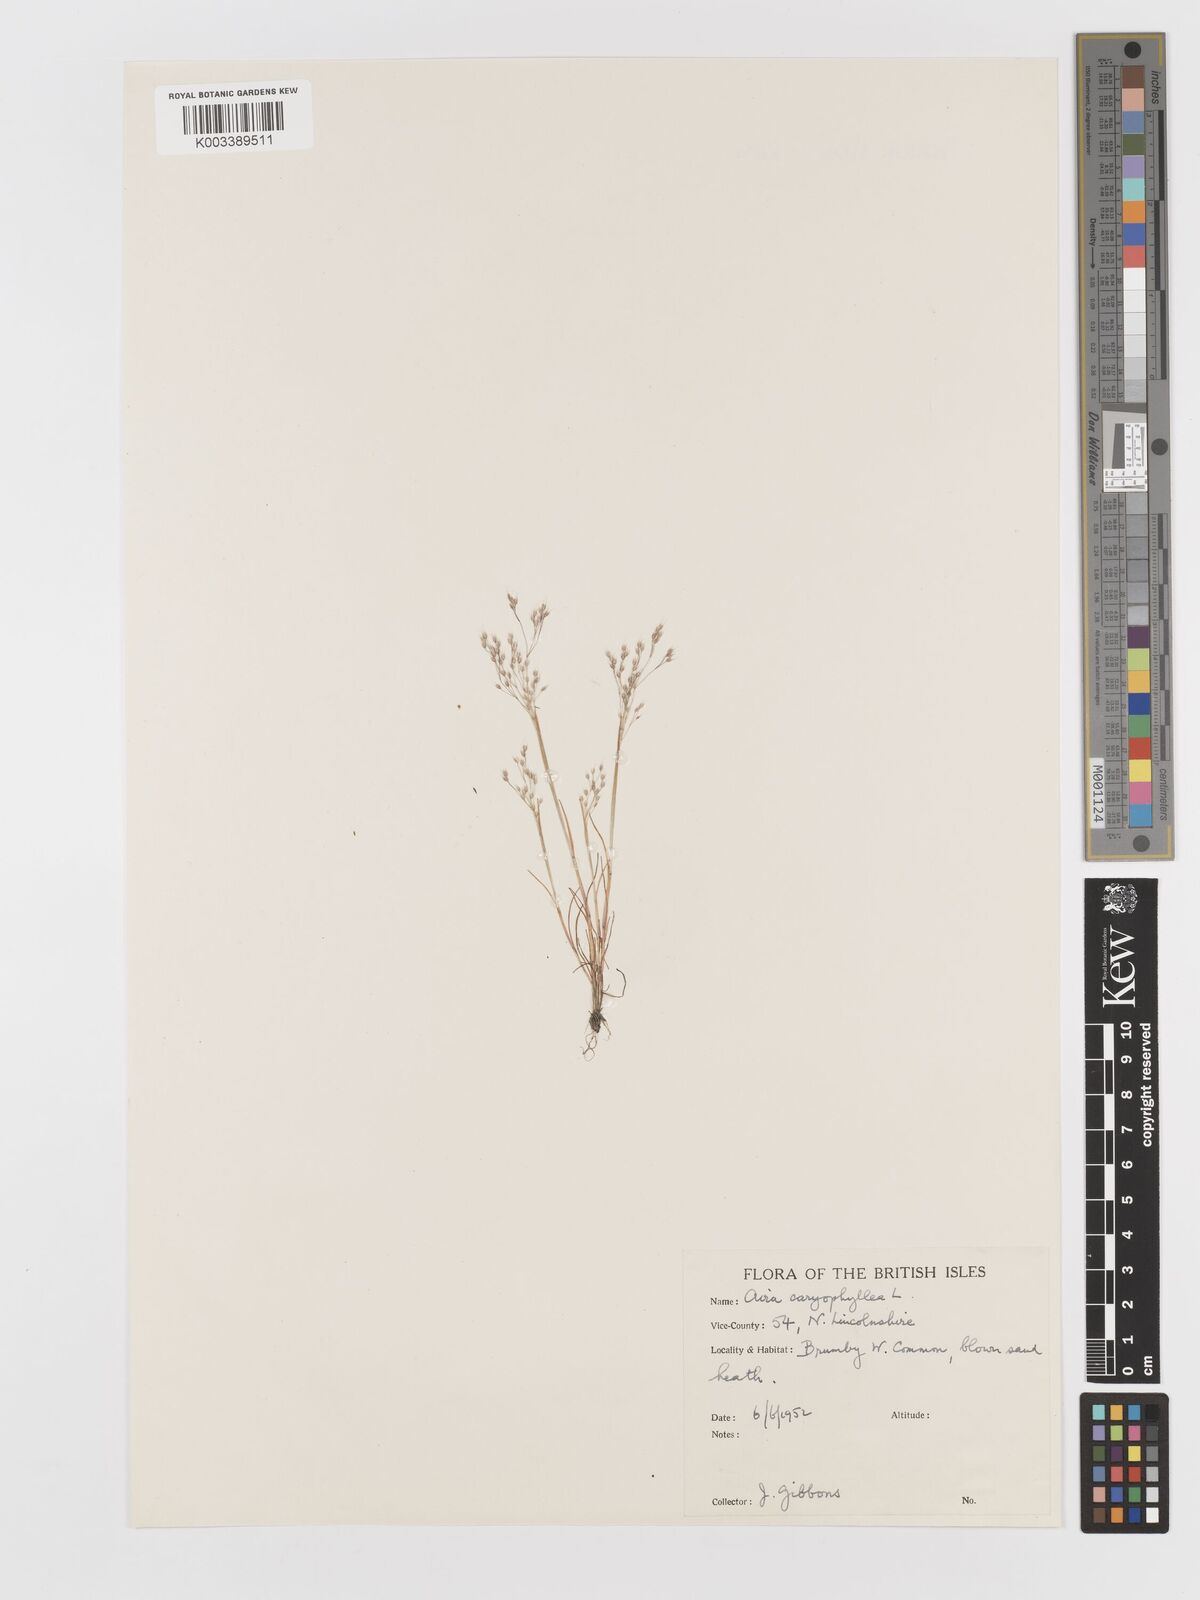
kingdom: Plantae
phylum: Tracheophyta
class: Liliopsida
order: Poales
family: Poaceae
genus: Aira
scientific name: Aira caryophyllea
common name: Silver hairgrass
